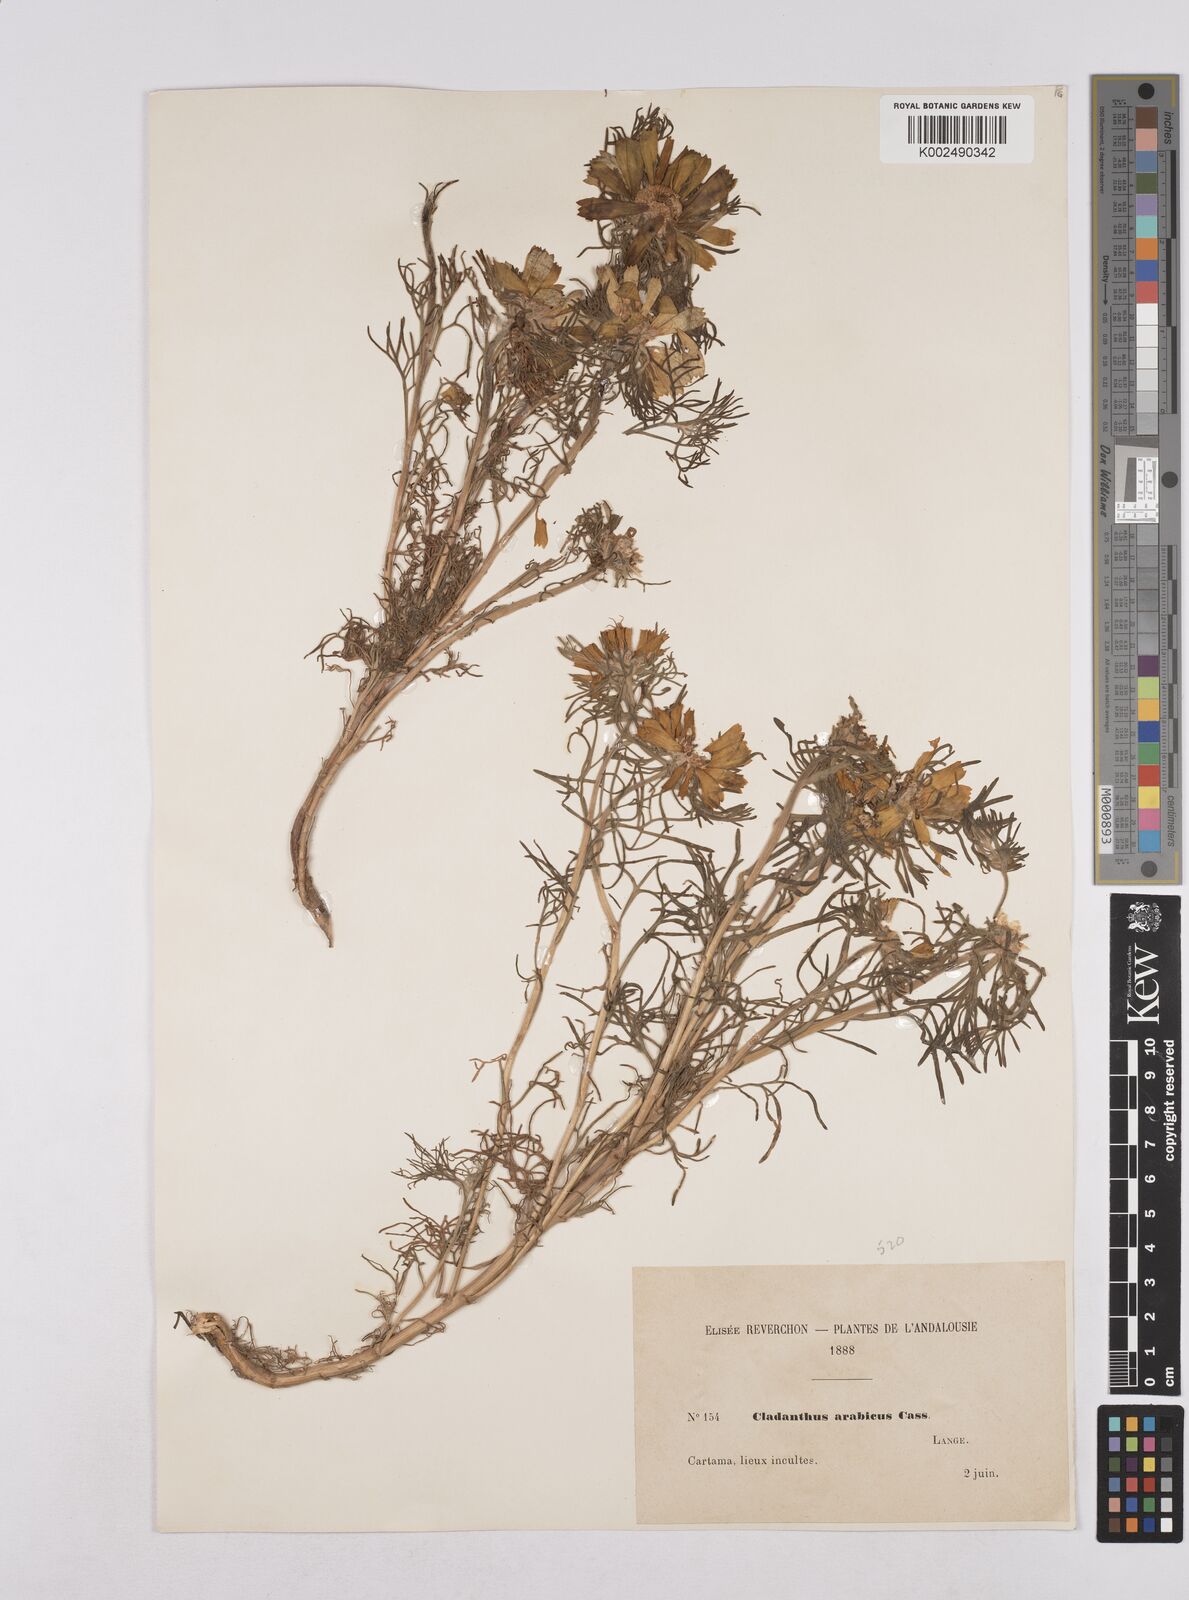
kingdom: Plantae
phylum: Tracheophyta
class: Magnoliopsida
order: Asterales
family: Asteraceae
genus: Cladanthus
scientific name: Cladanthus arabicus
